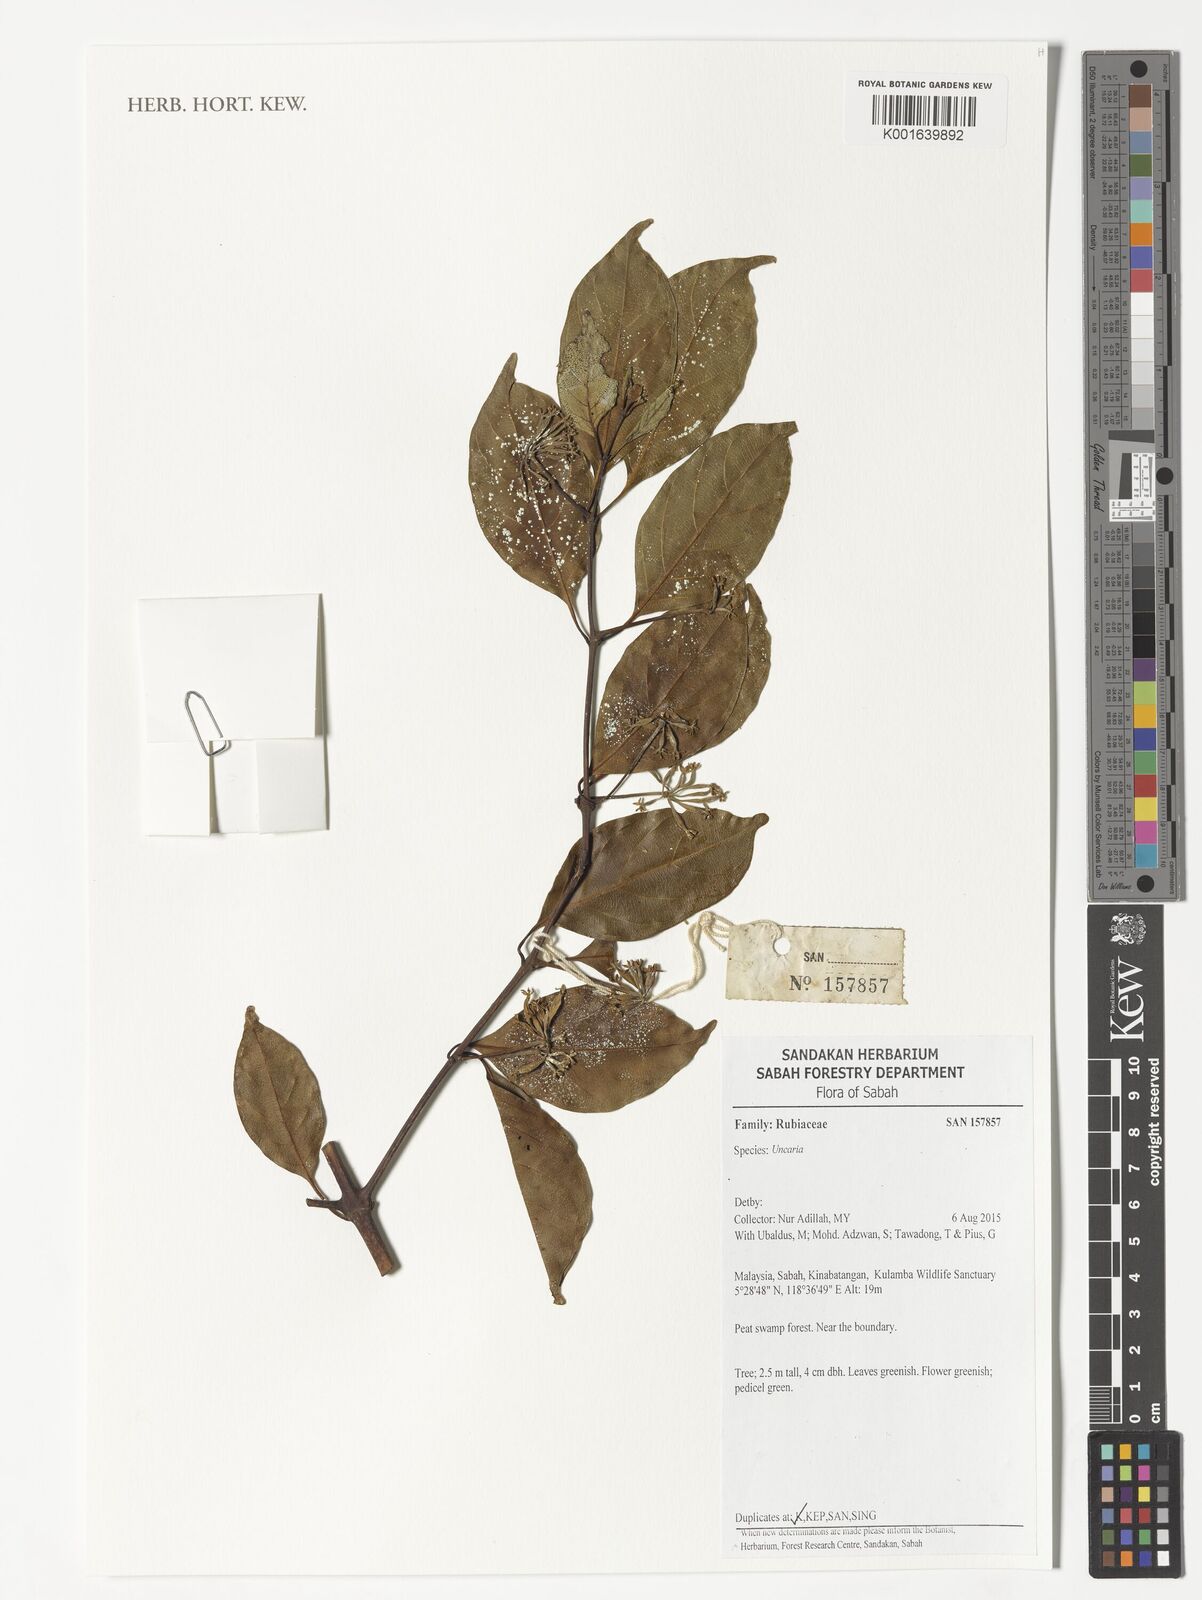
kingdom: Plantae
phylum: Tracheophyta
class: Magnoliopsida
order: Gentianales
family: Rubiaceae
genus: Uncaria
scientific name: Uncaria
